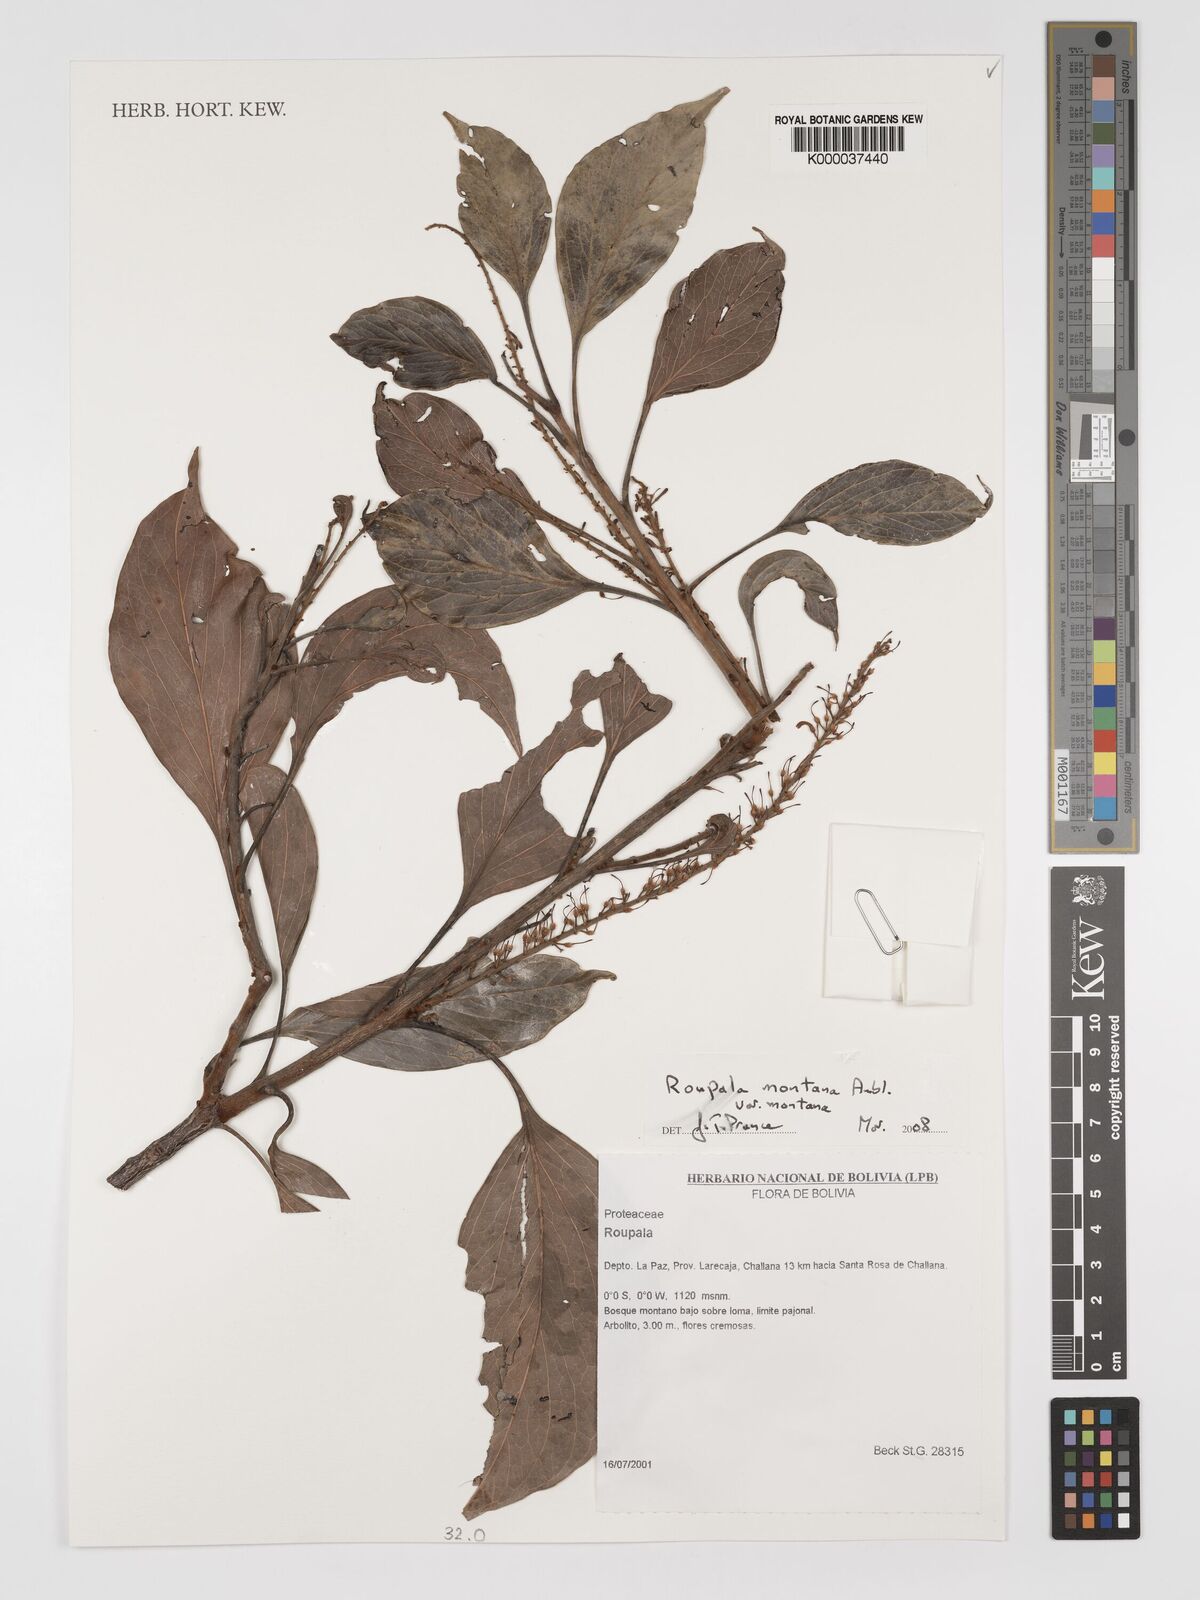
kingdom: Plantae
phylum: Tracheophyta
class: Magnoliopsida
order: Proteales
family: Proteaceae
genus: Roupala
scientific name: Roupala montana
